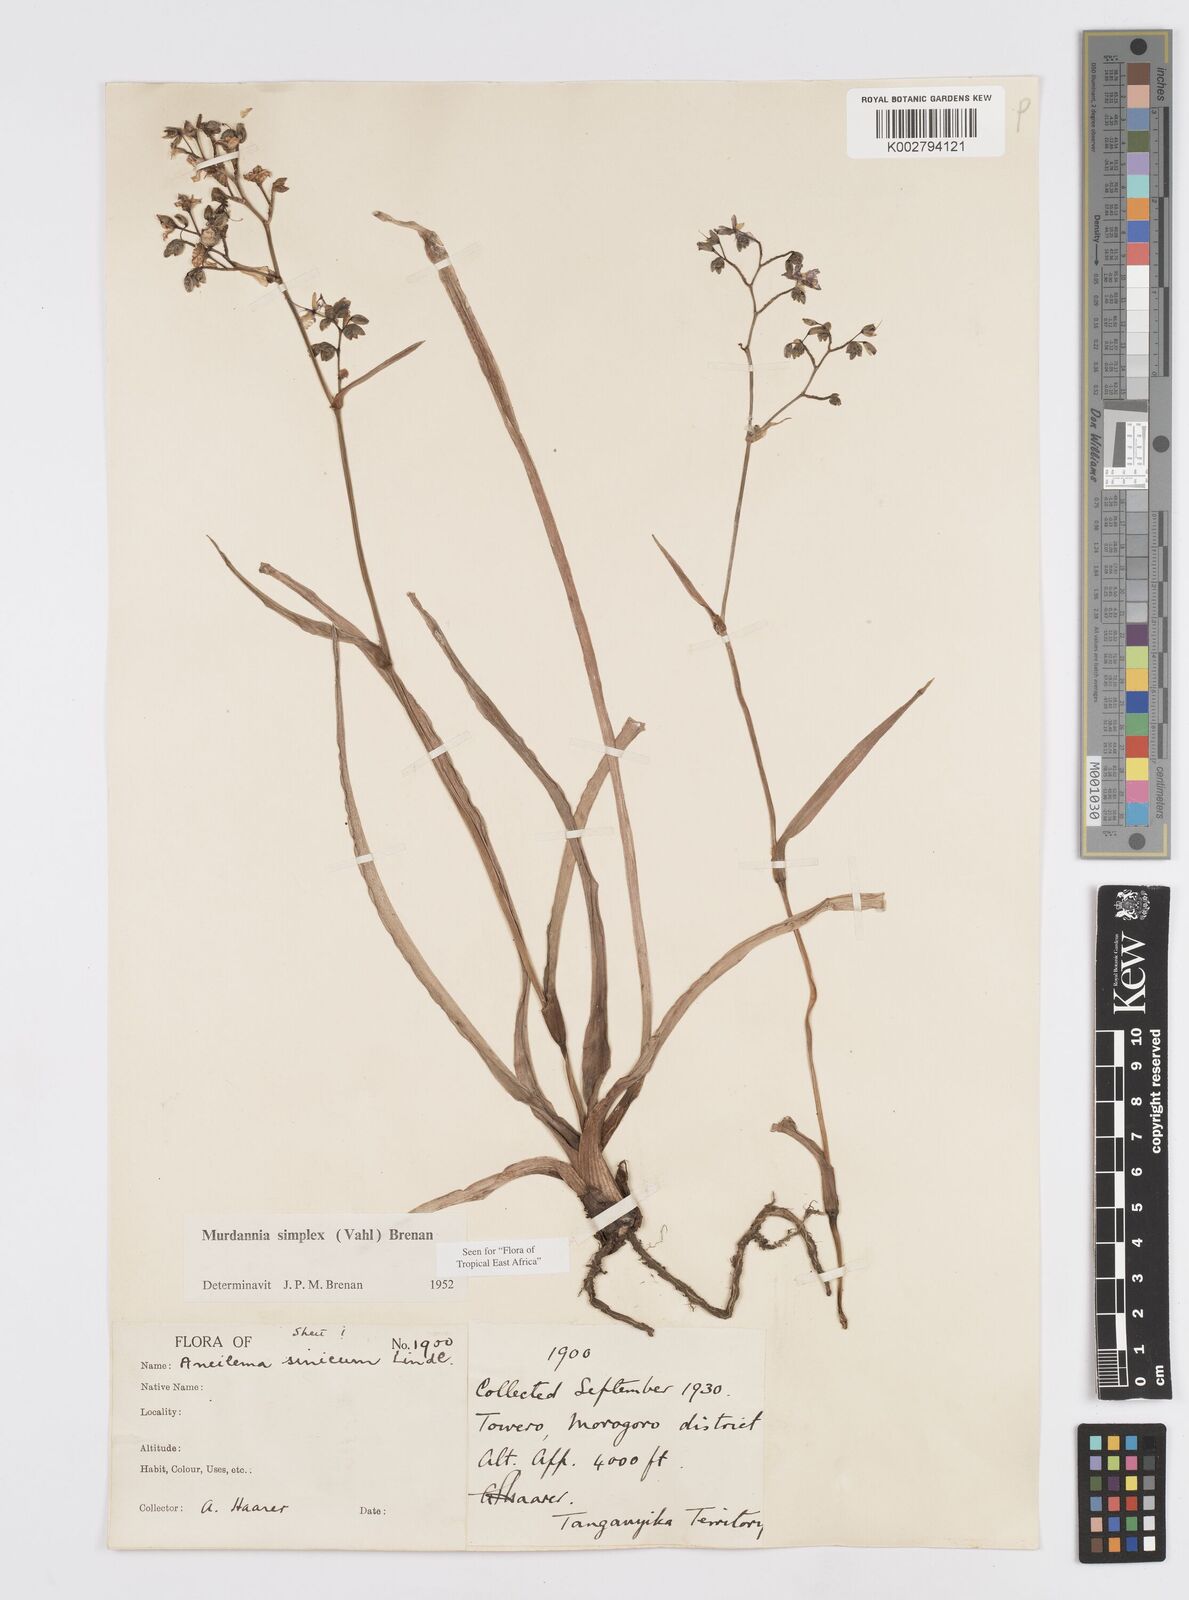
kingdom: Plantae
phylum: Tracheophyta
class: Liliopsida
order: Commelinales
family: Commelinaceae
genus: Murdannia
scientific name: Murdannia simplex
